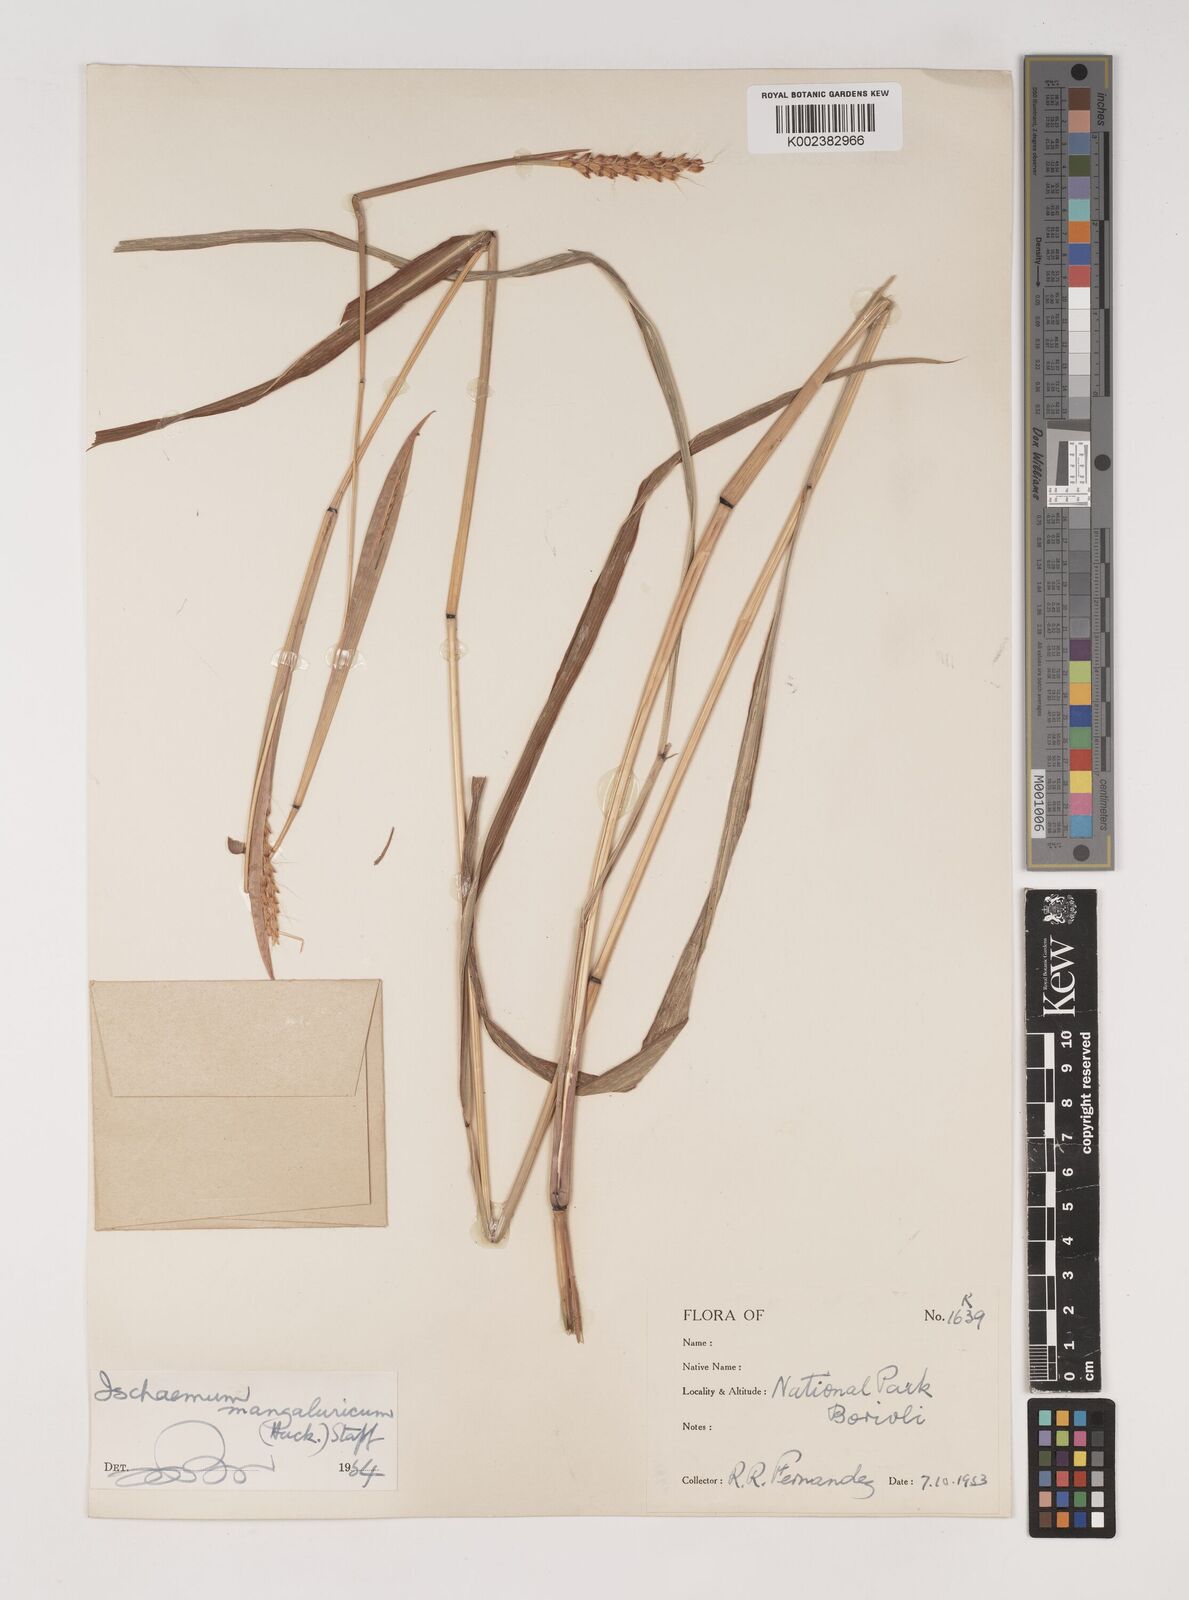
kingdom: Plantae
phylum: Tracheophyta
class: Liliopsida
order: Poales
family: Poaceae
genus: Ischaemum
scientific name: Ischaemum barbatum
